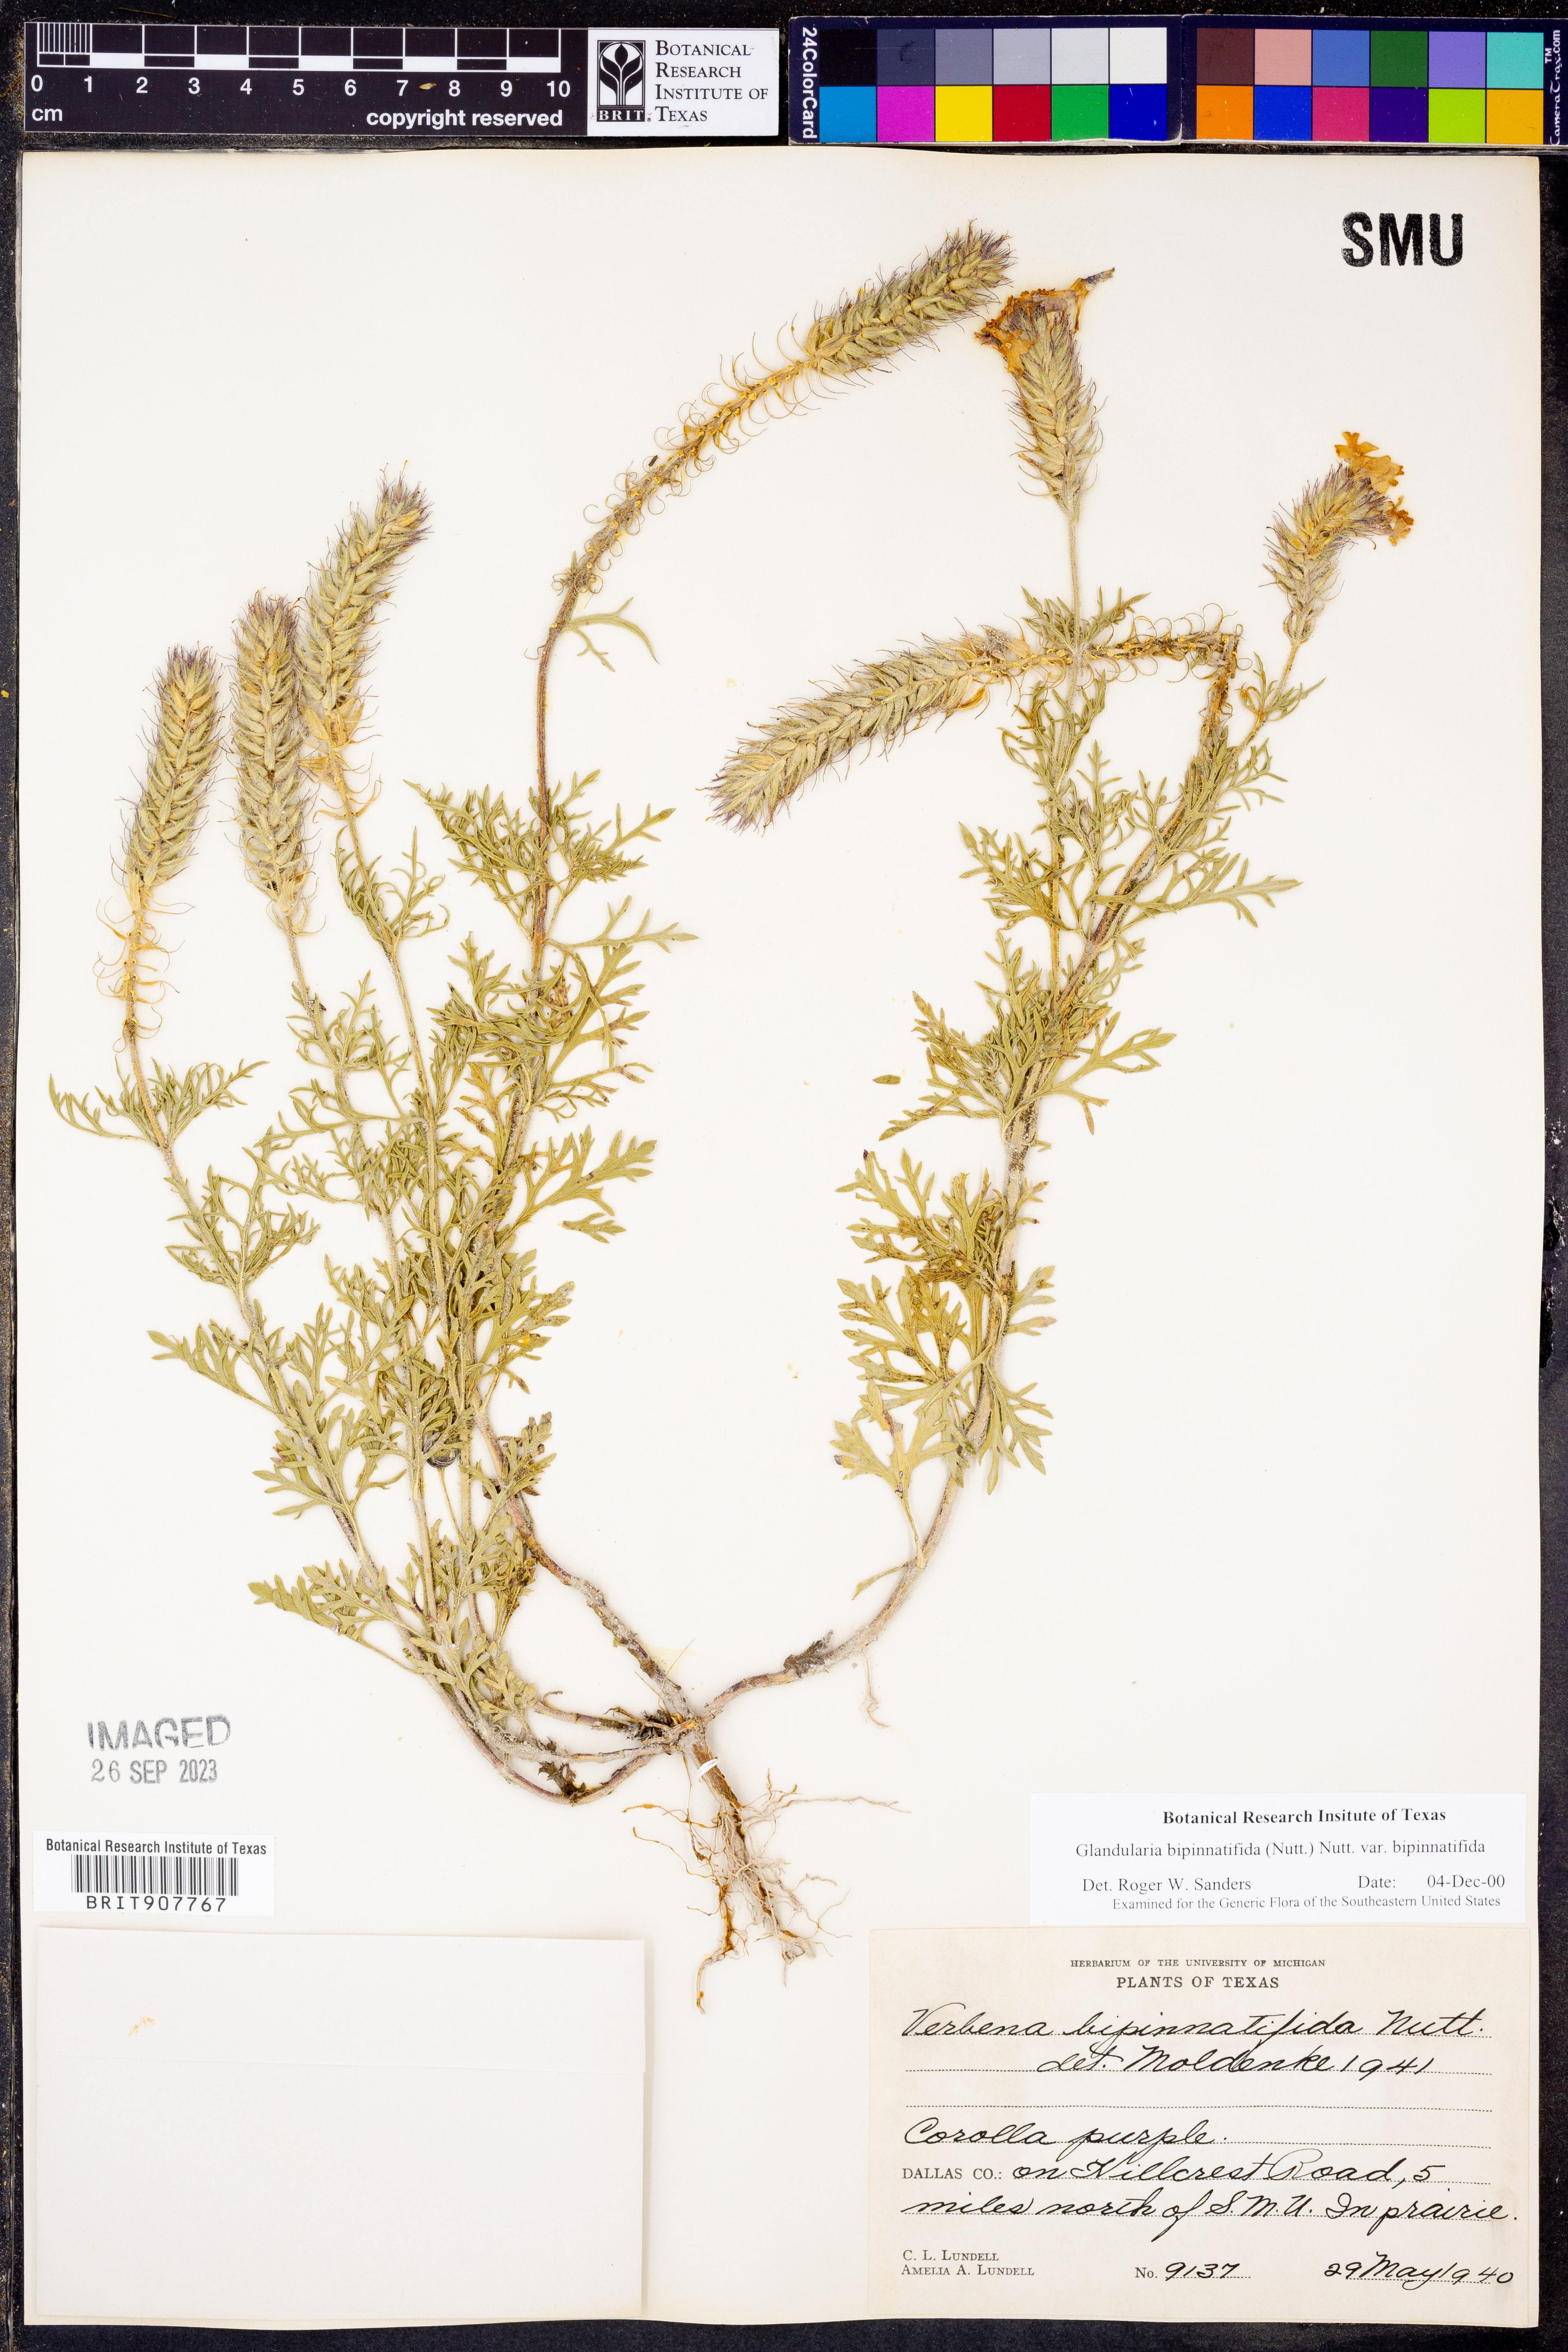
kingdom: Plantae
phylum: Tracheophyta
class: Magnoliopsida
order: Lamiales
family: Verbenaceae
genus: Verbena
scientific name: Verbena bipinnatifida
